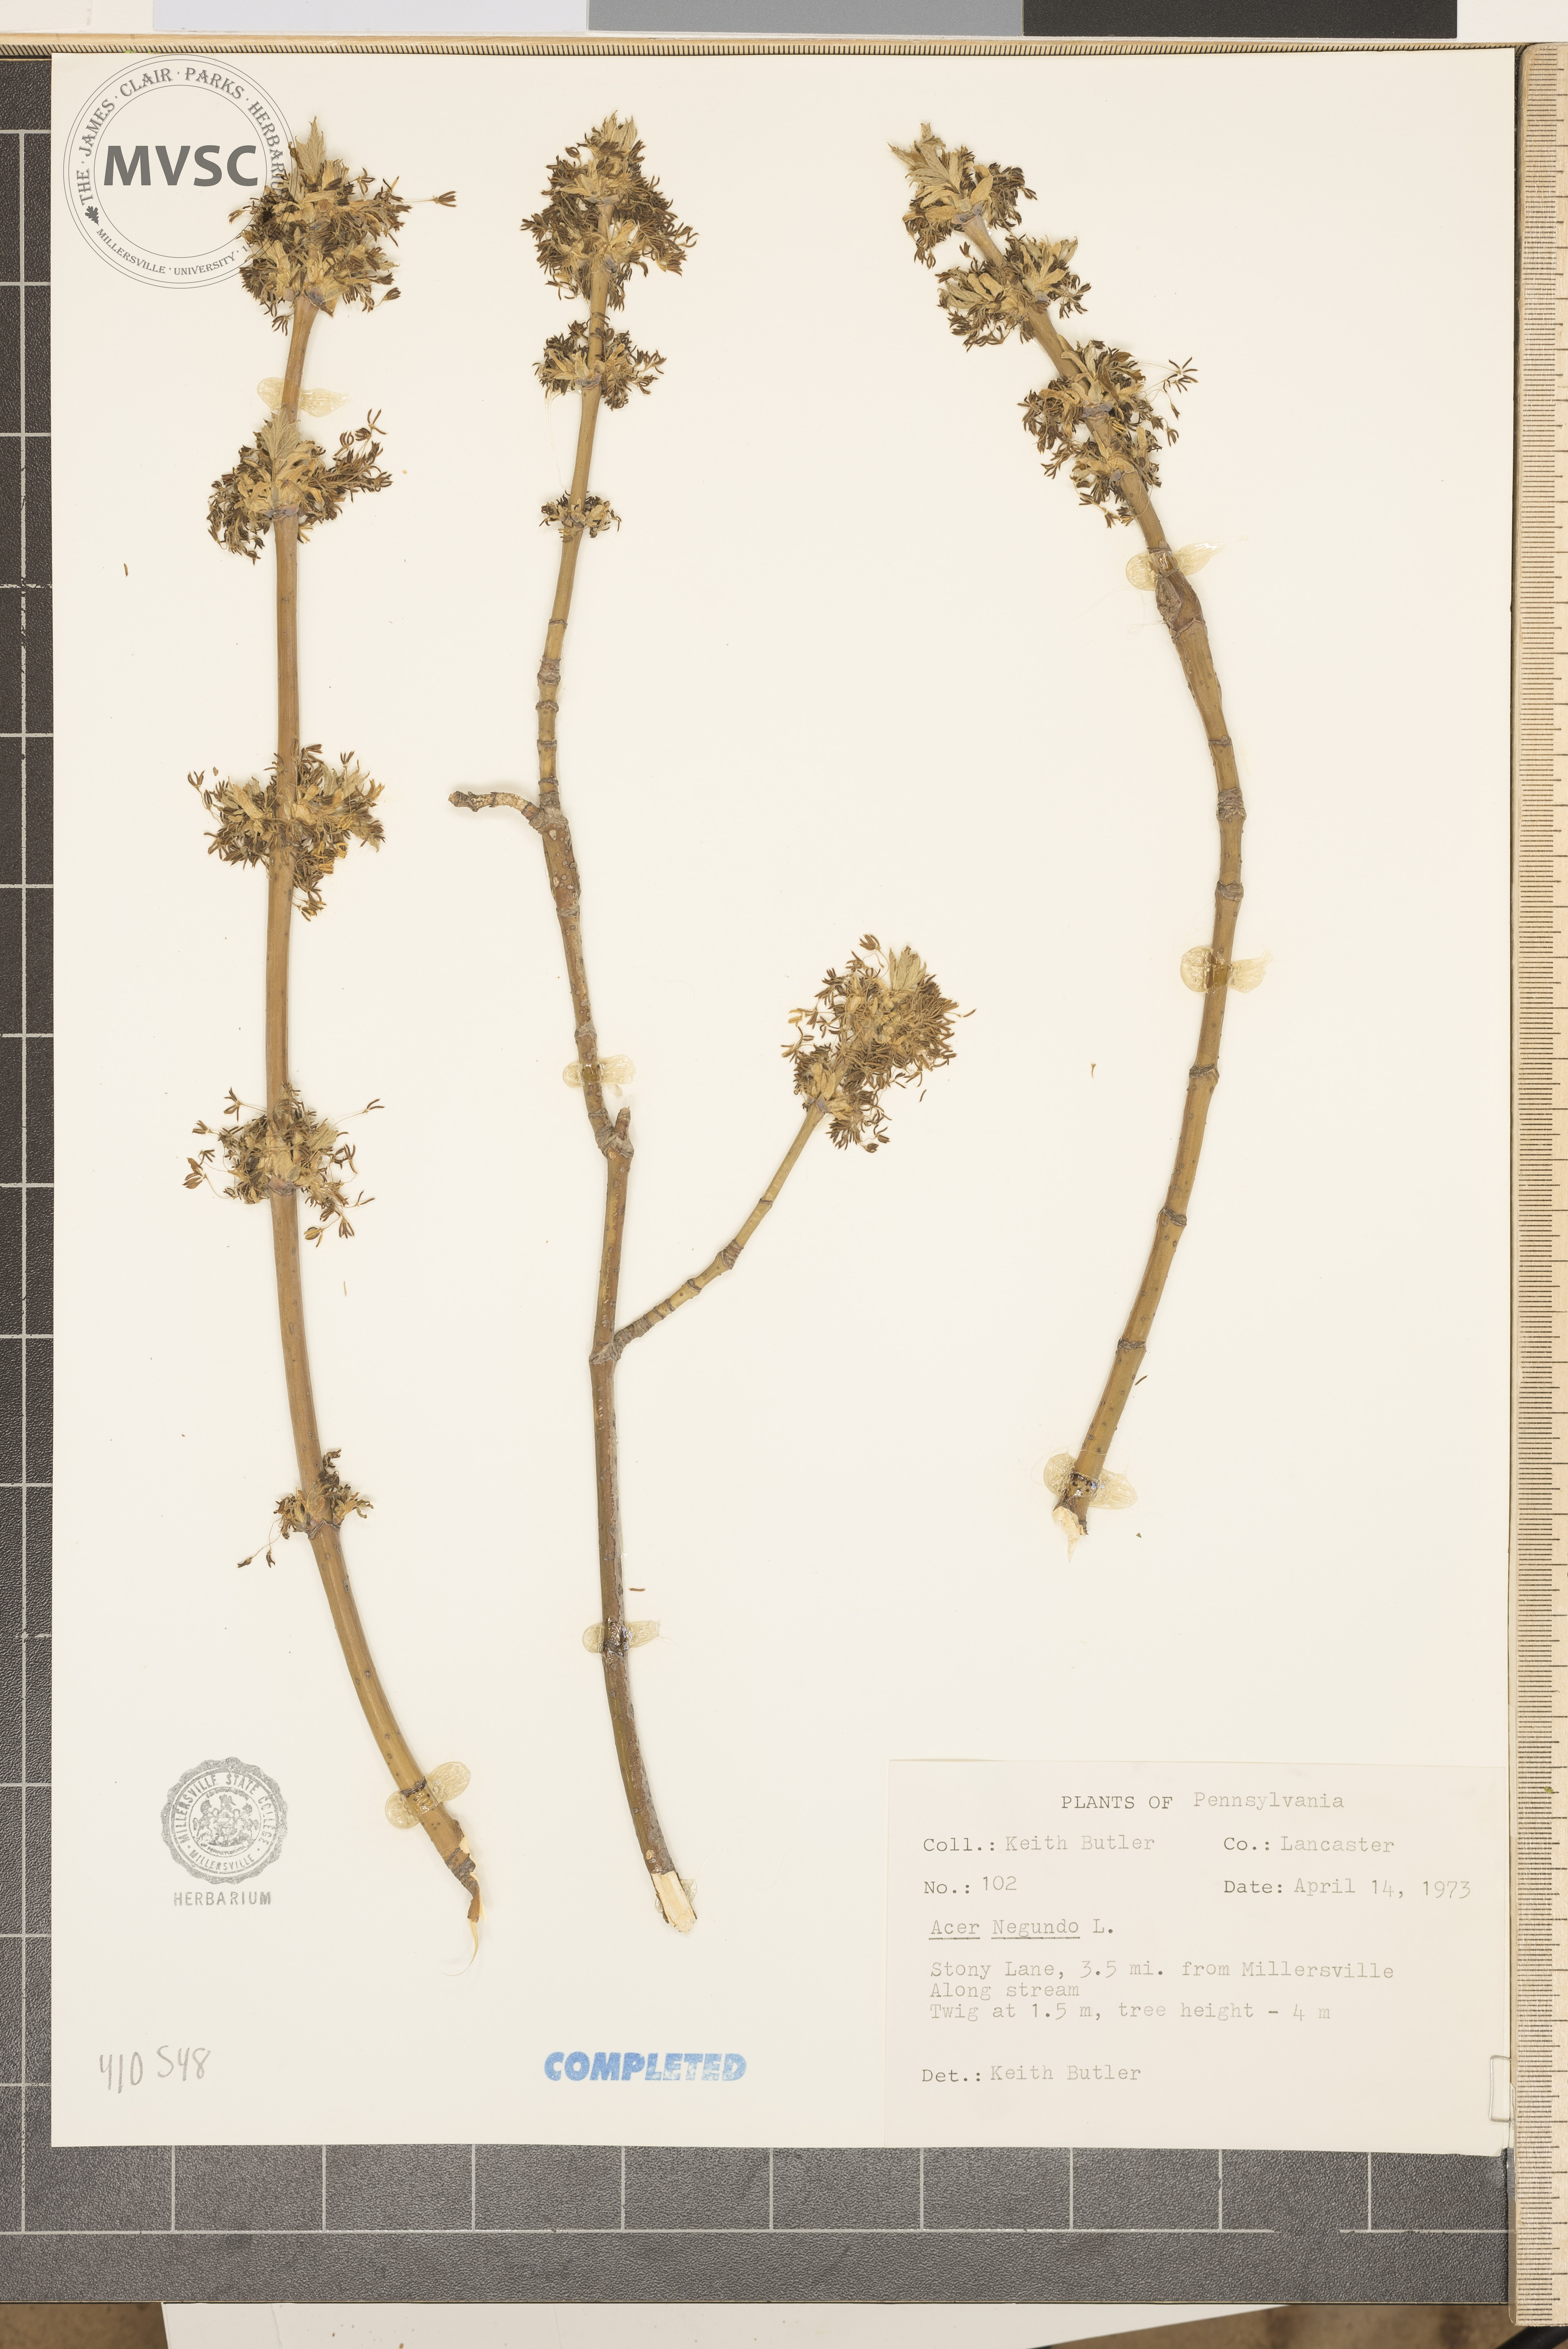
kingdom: Plantae
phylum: Tracheophyta
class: Magnoliopsida
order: Sapindales
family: Sapindaceae
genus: Acer
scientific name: Acer negundo
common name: Ashleaf maple
